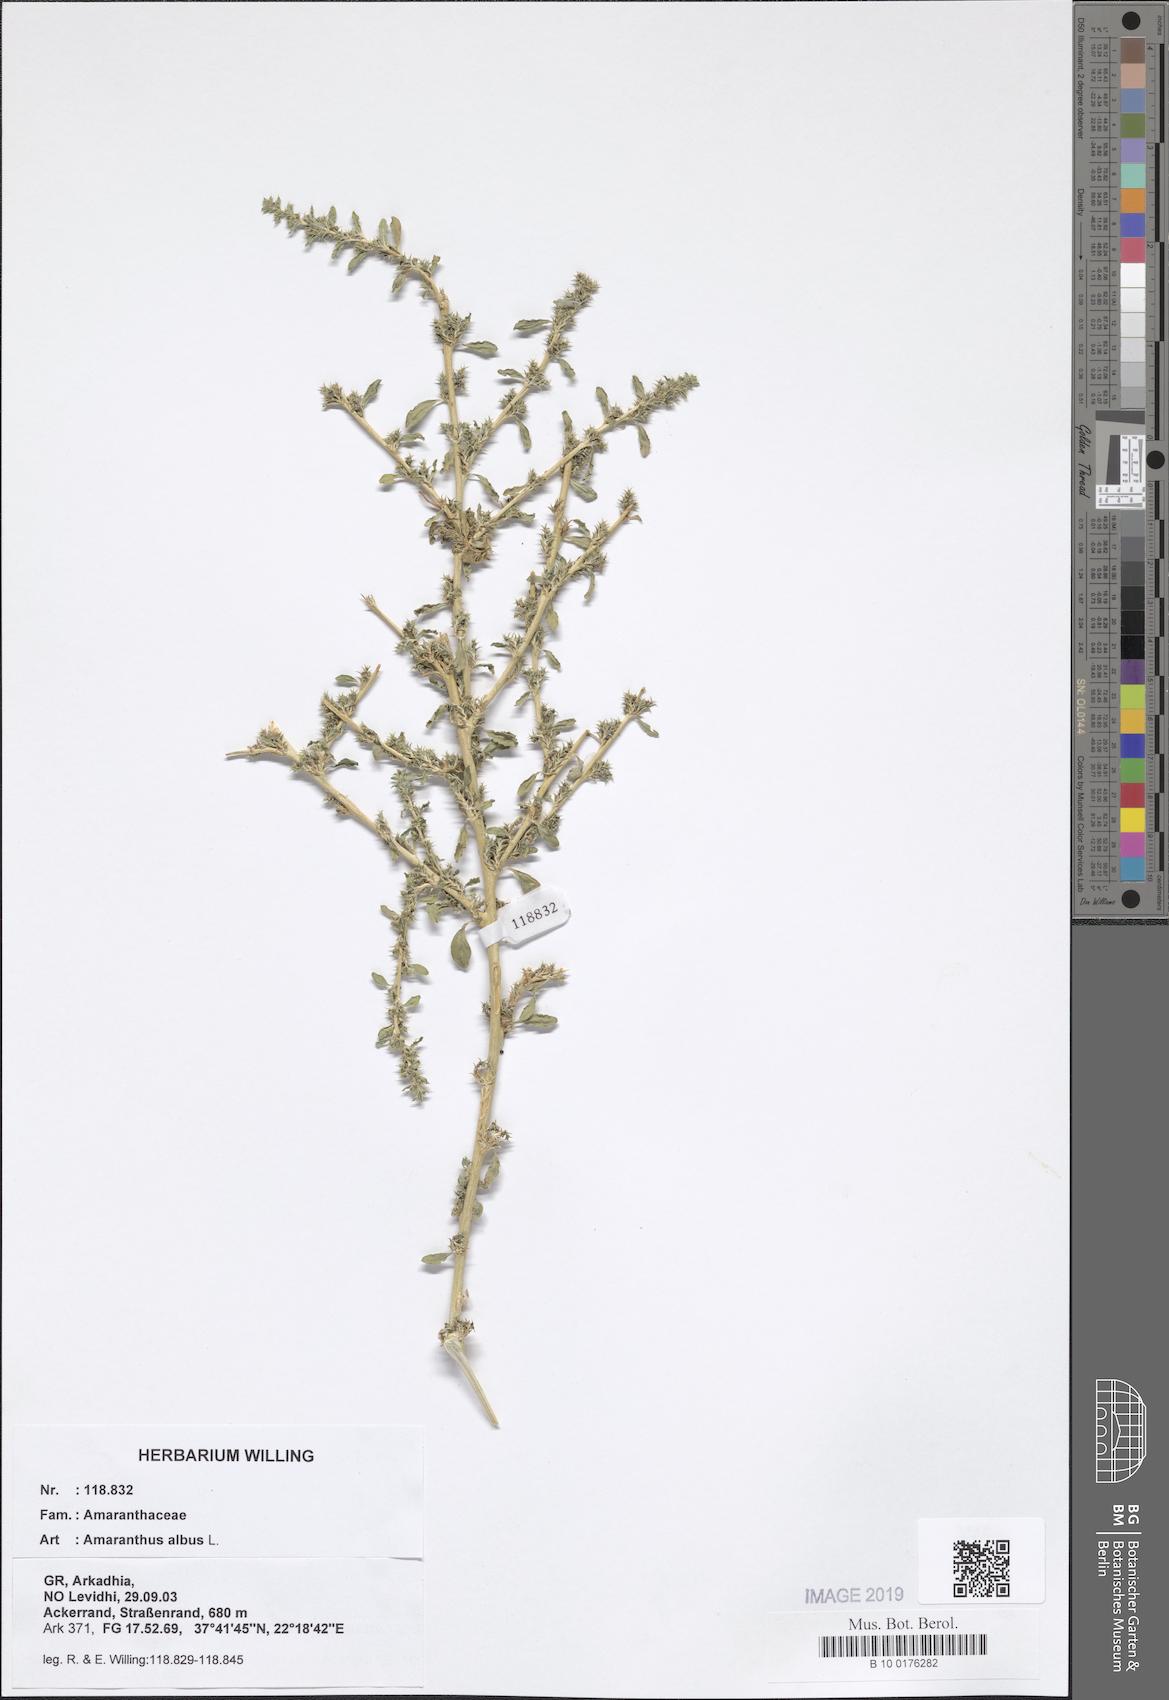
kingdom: Plantae
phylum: Tracheophyta
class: Magnoliopsida
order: Caryophyllales
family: Amaranthaceae
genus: Amaranthus
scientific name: Amaranthus albus
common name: White pigweed
